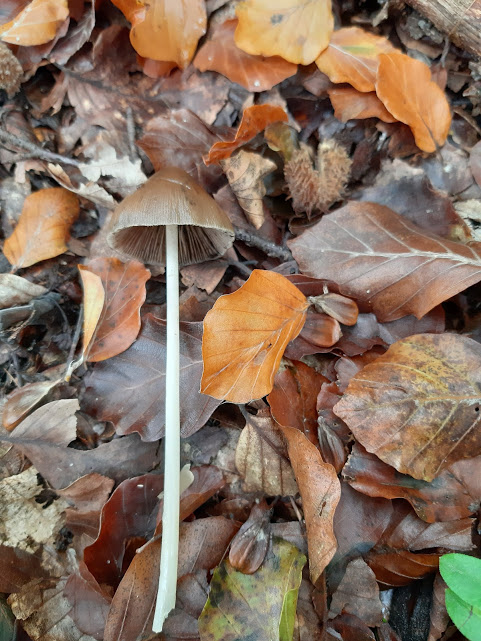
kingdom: Fungi
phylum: Basidiomycota
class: Agaricomycetes
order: Agaricales
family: Psathyrellaceae
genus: Parasola
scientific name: Parasola conopilea
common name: kegle-hjulhat
